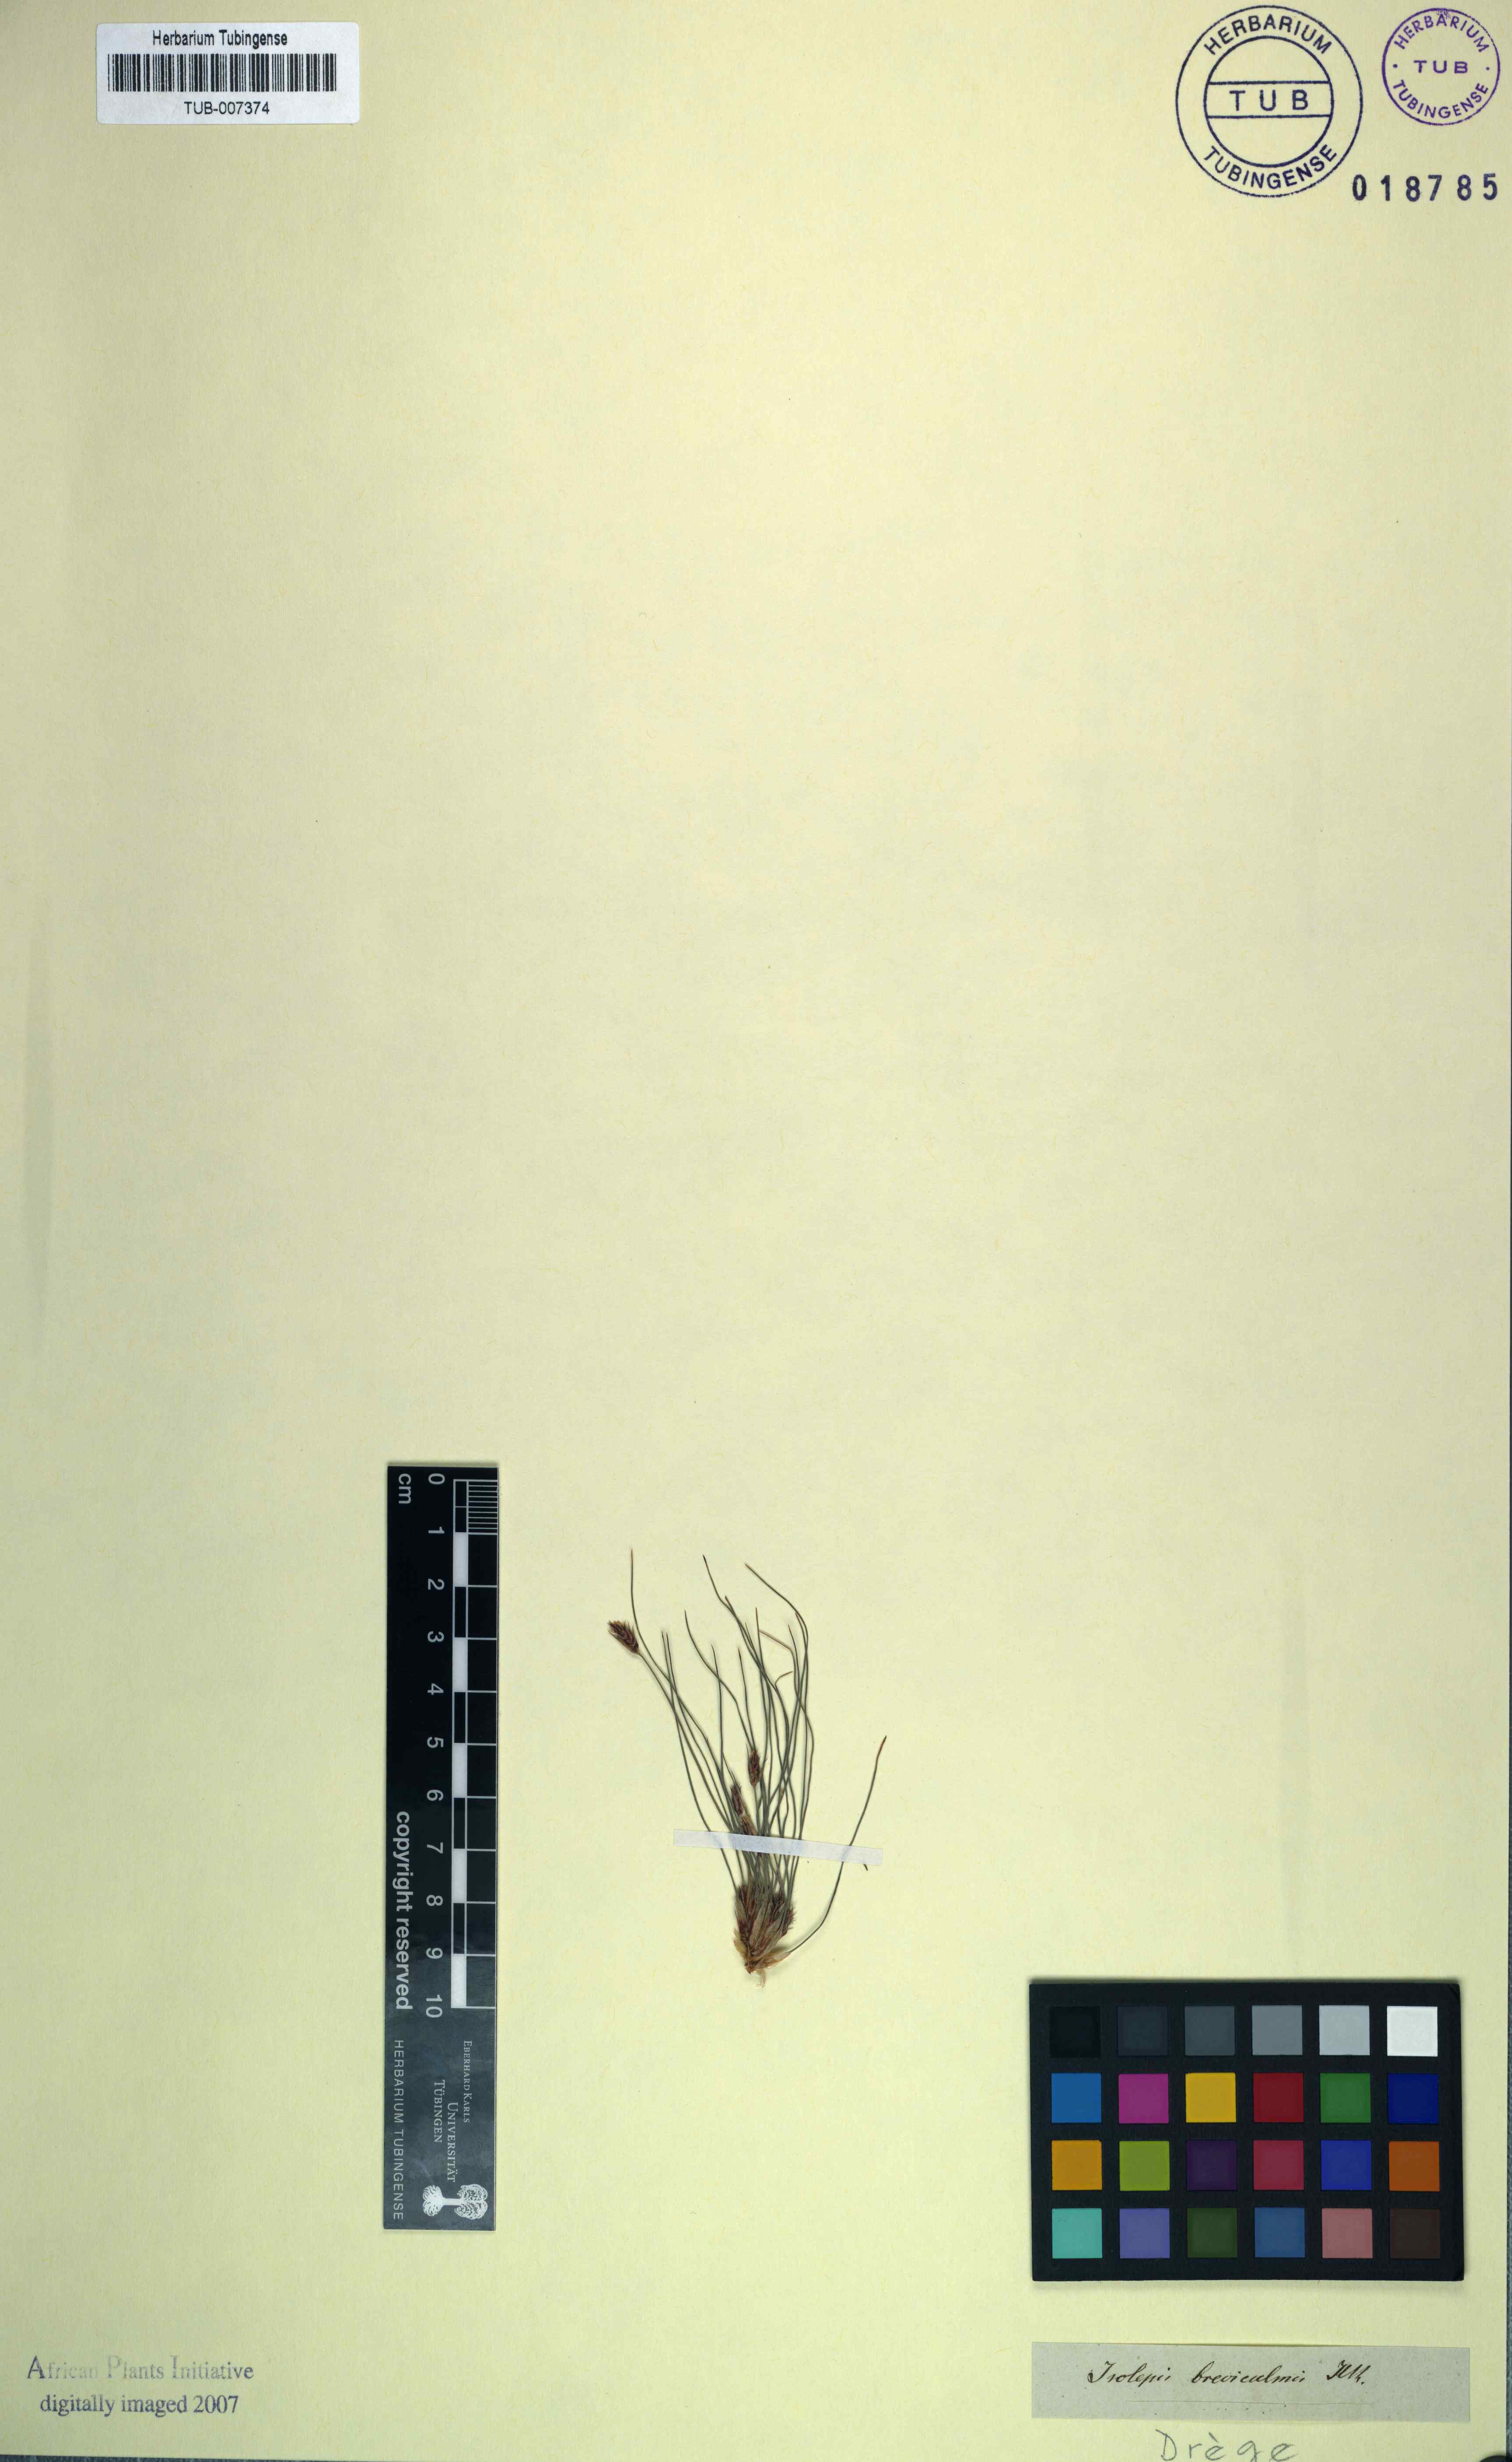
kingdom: Plantae
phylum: Tracheophyta
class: Liliopsida
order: Poales
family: Cyperaceae
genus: Fimbristylis
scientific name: Fimbristylis vahlii
